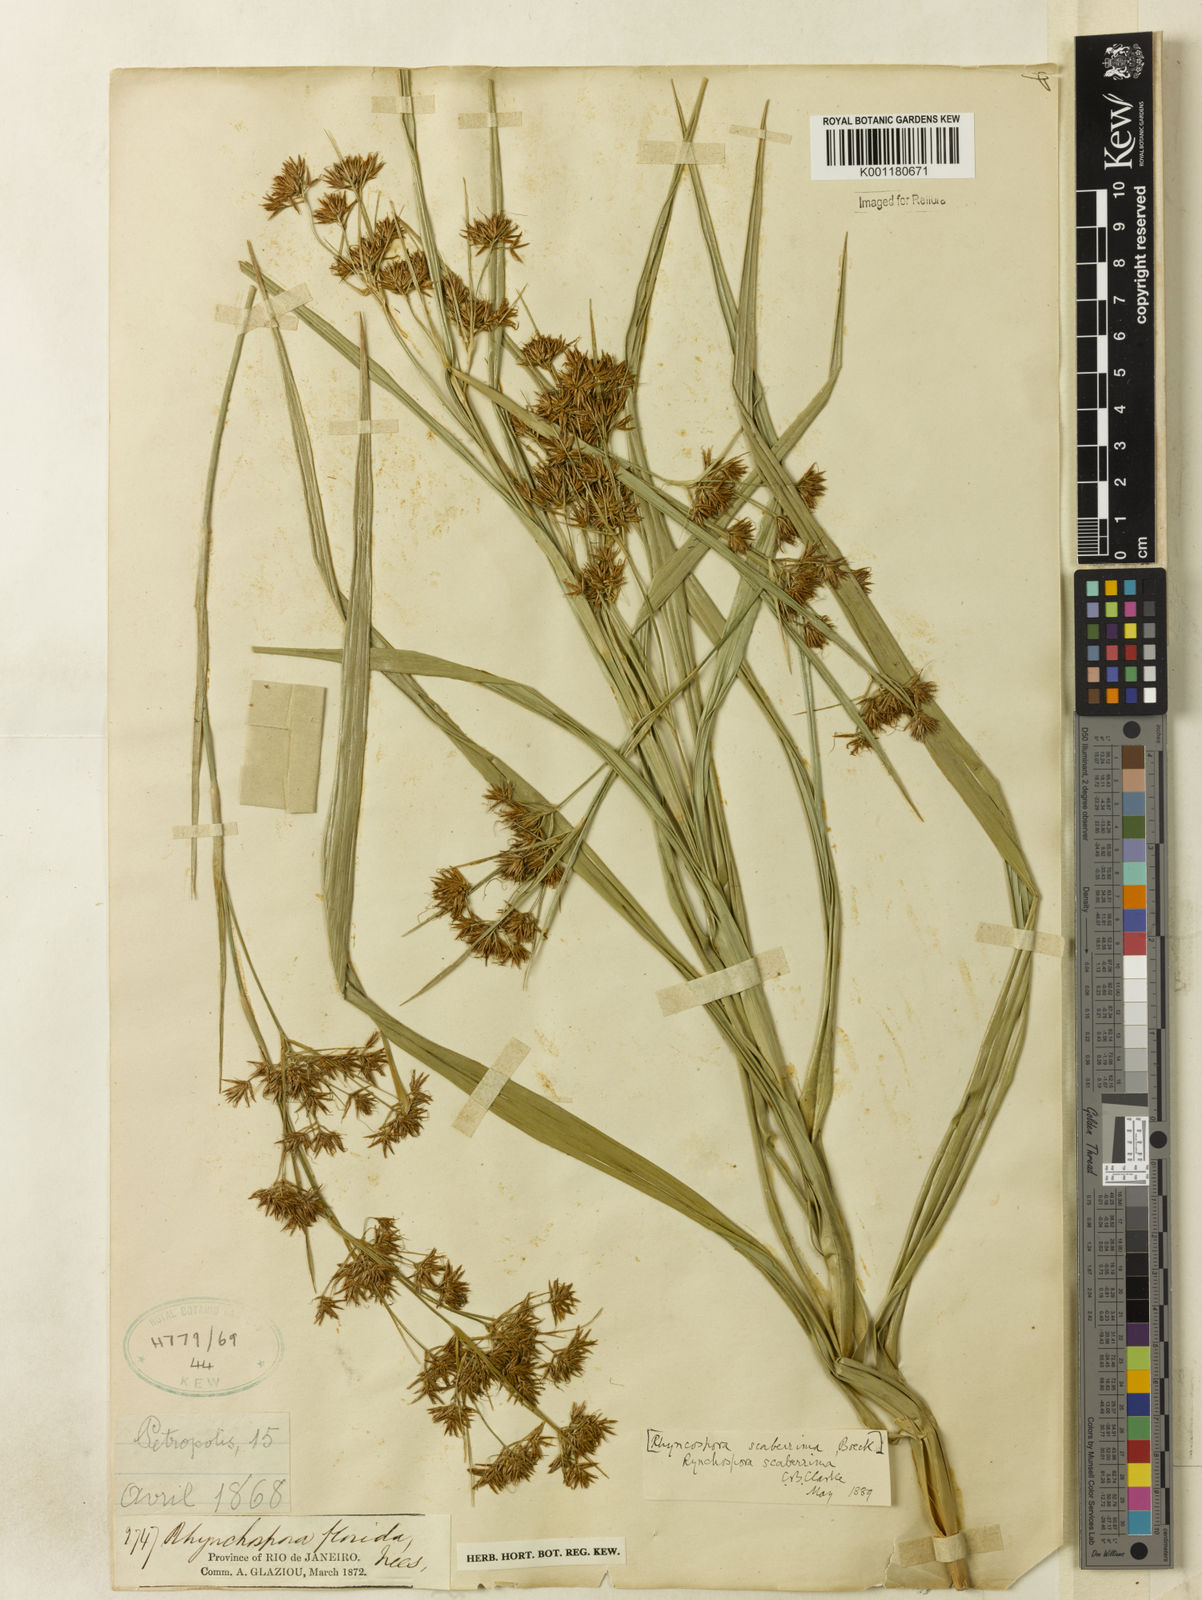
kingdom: Plantae
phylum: Tracheophyta
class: Liliopsida
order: Poales
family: Cyperaceae
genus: Rhynchospora
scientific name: Rhynchospora gigantea
